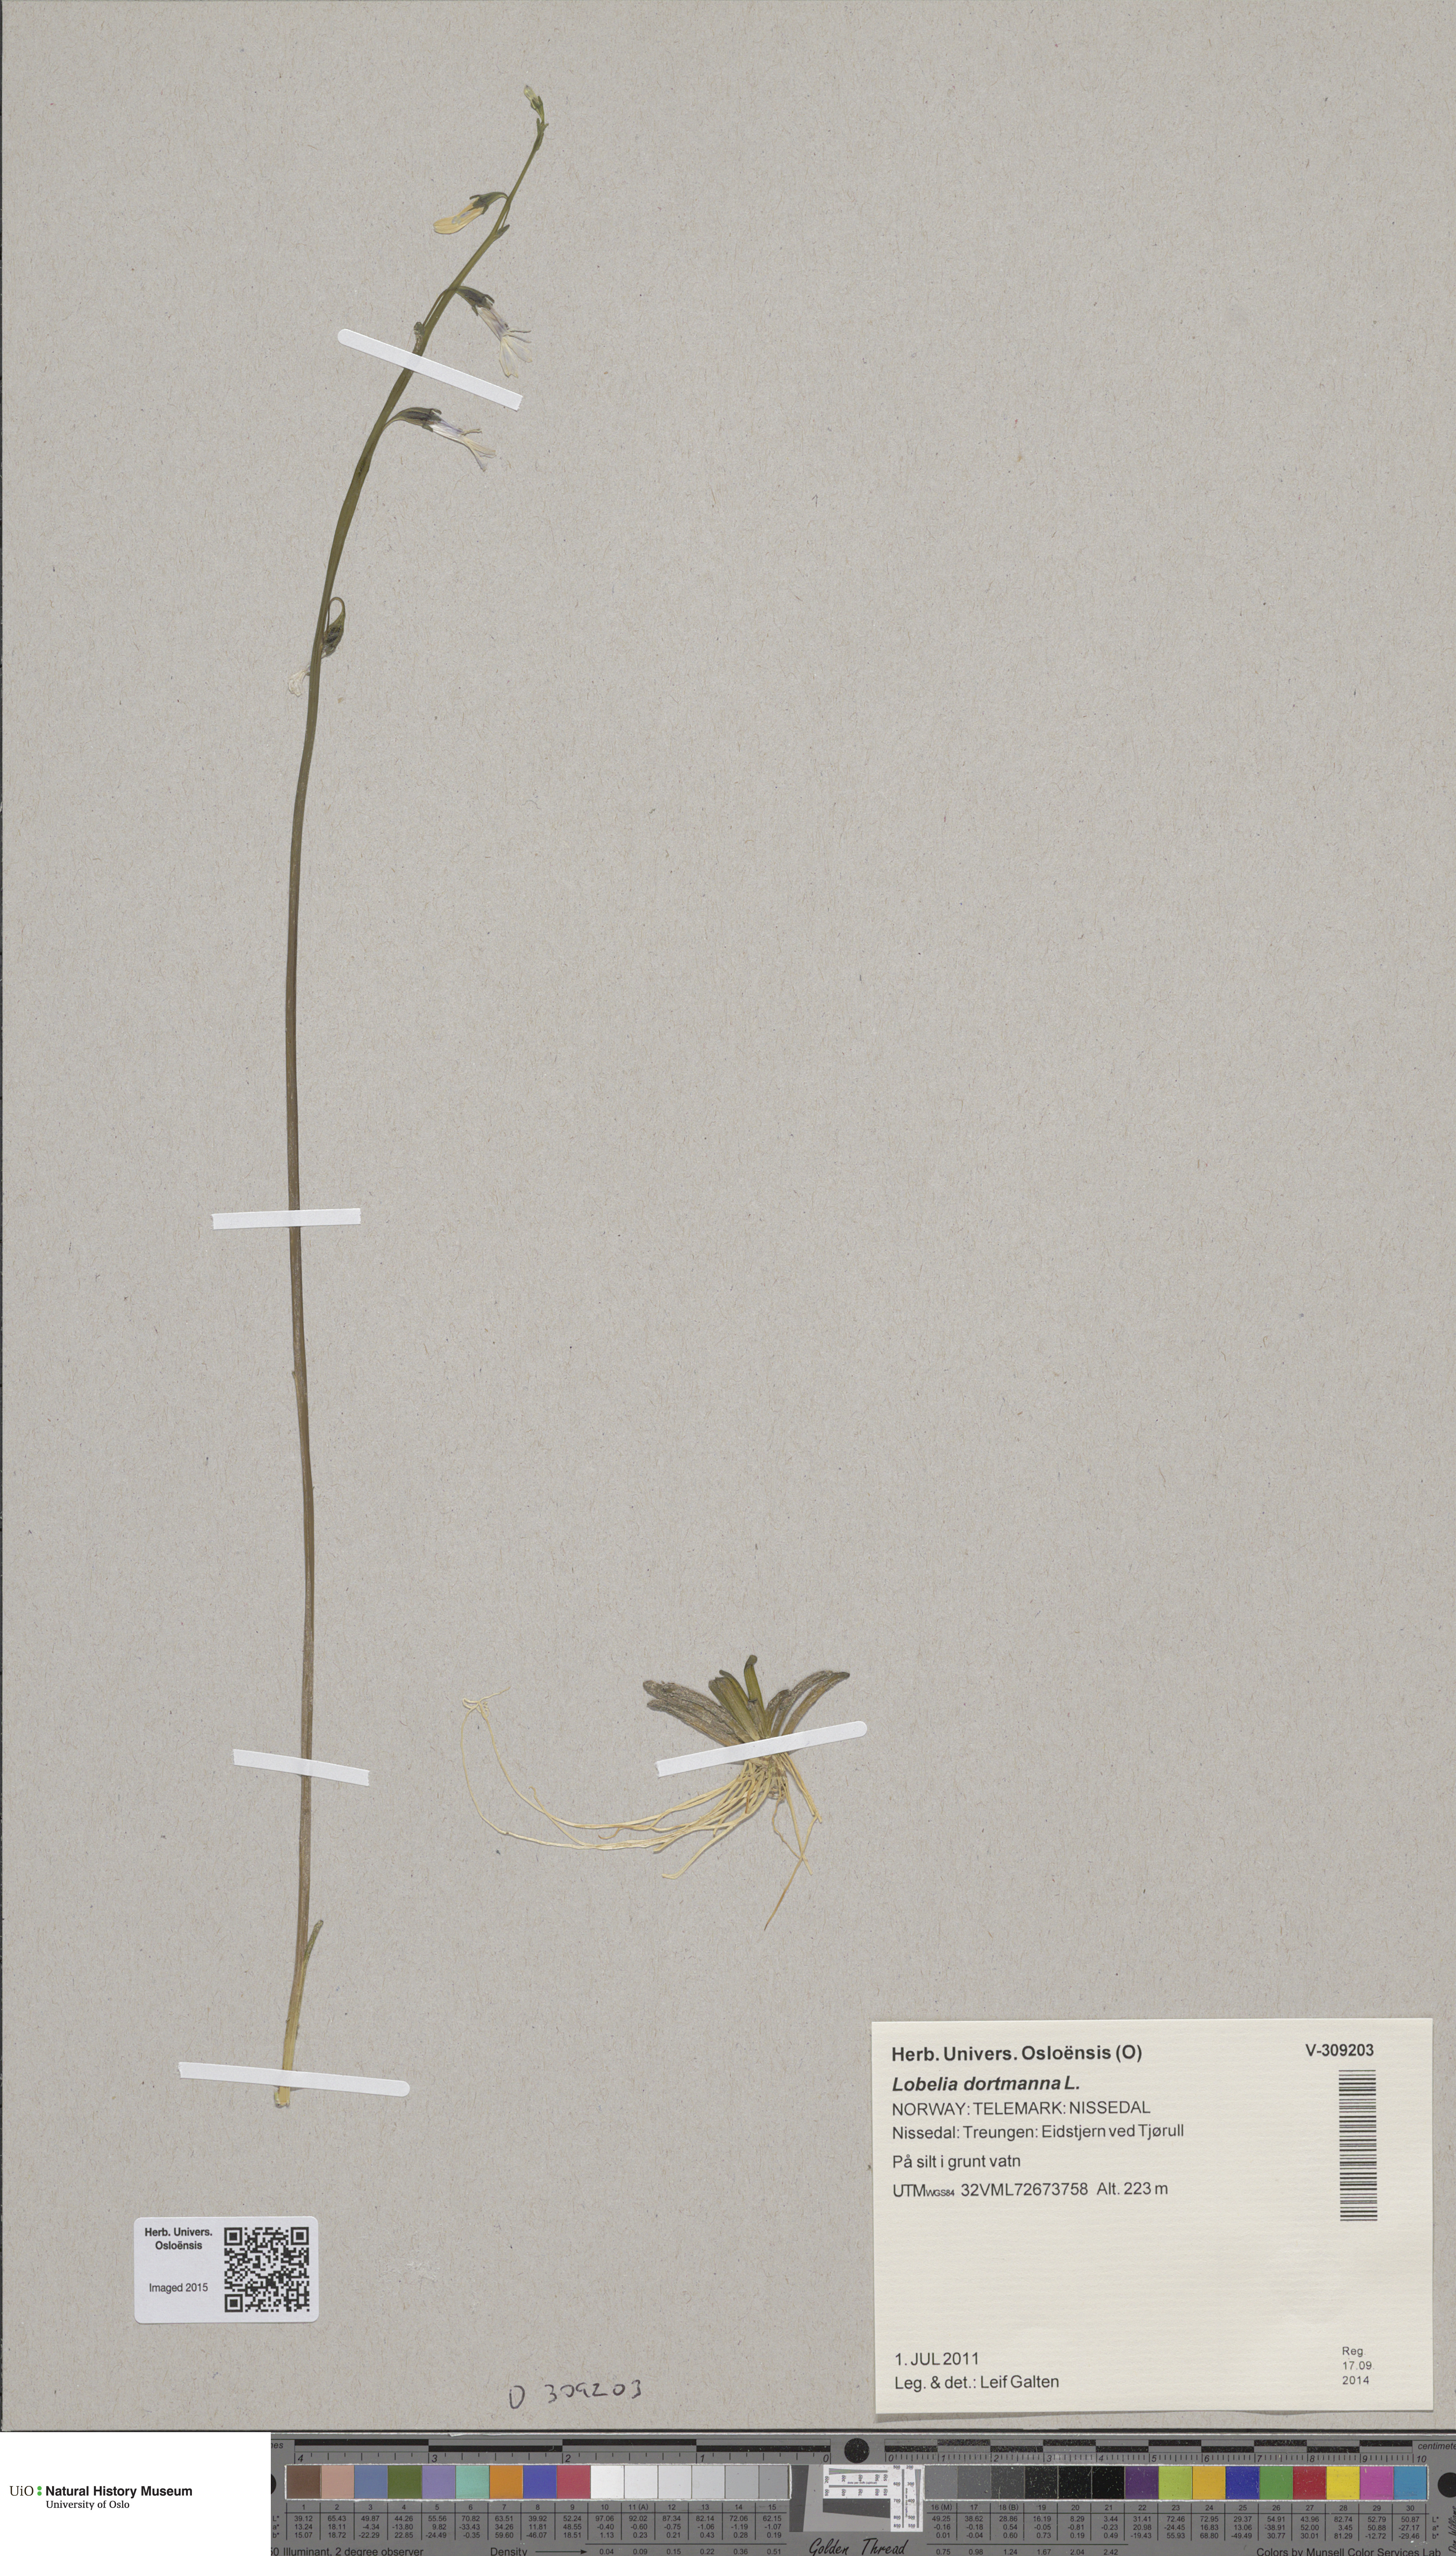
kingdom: Plantae
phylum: Tracheophyta
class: Magnoliopsida
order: Asterales
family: Campanulaceae
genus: Lobelia
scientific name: Lobelia dortmanna
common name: Water lobelia
